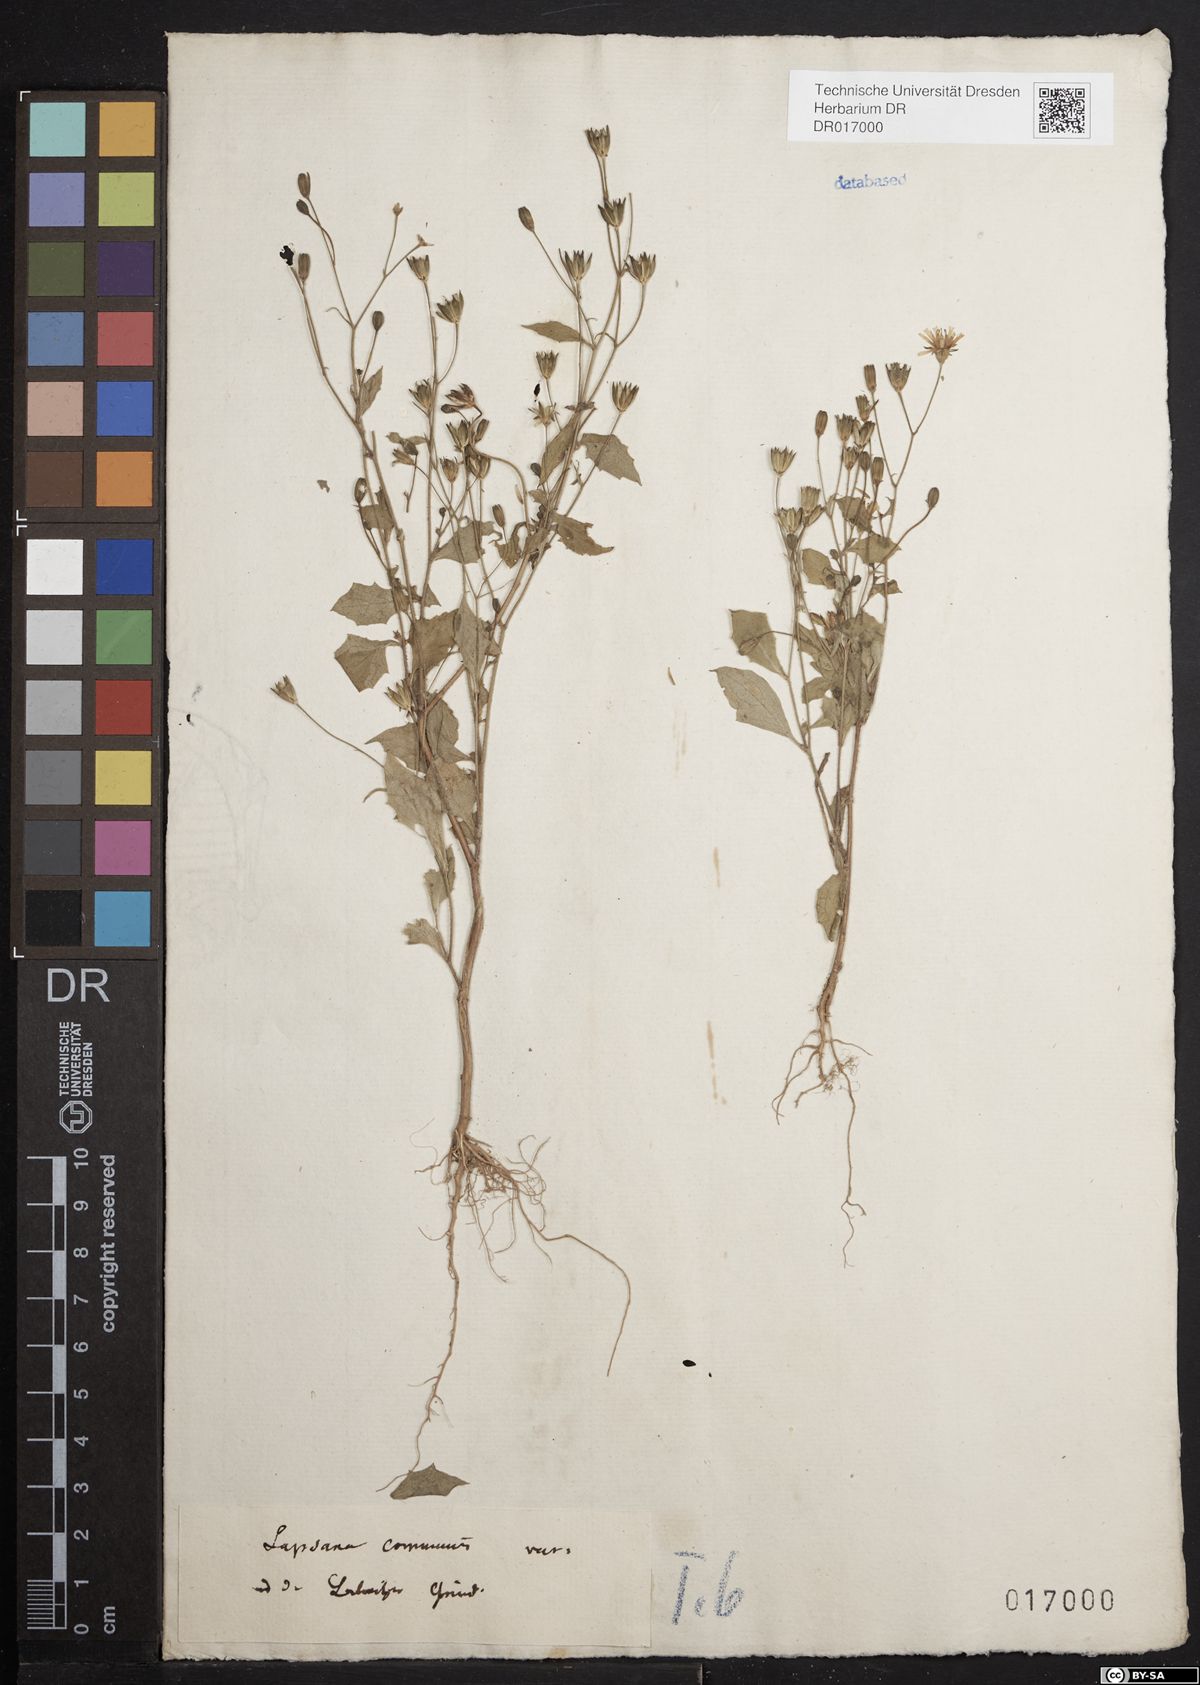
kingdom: Plantae
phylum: Tracheophyta
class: Magnoliopsida
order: Asterales
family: Asteraceae
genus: Lapsana
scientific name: Lapsana communis
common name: Nipplewort
